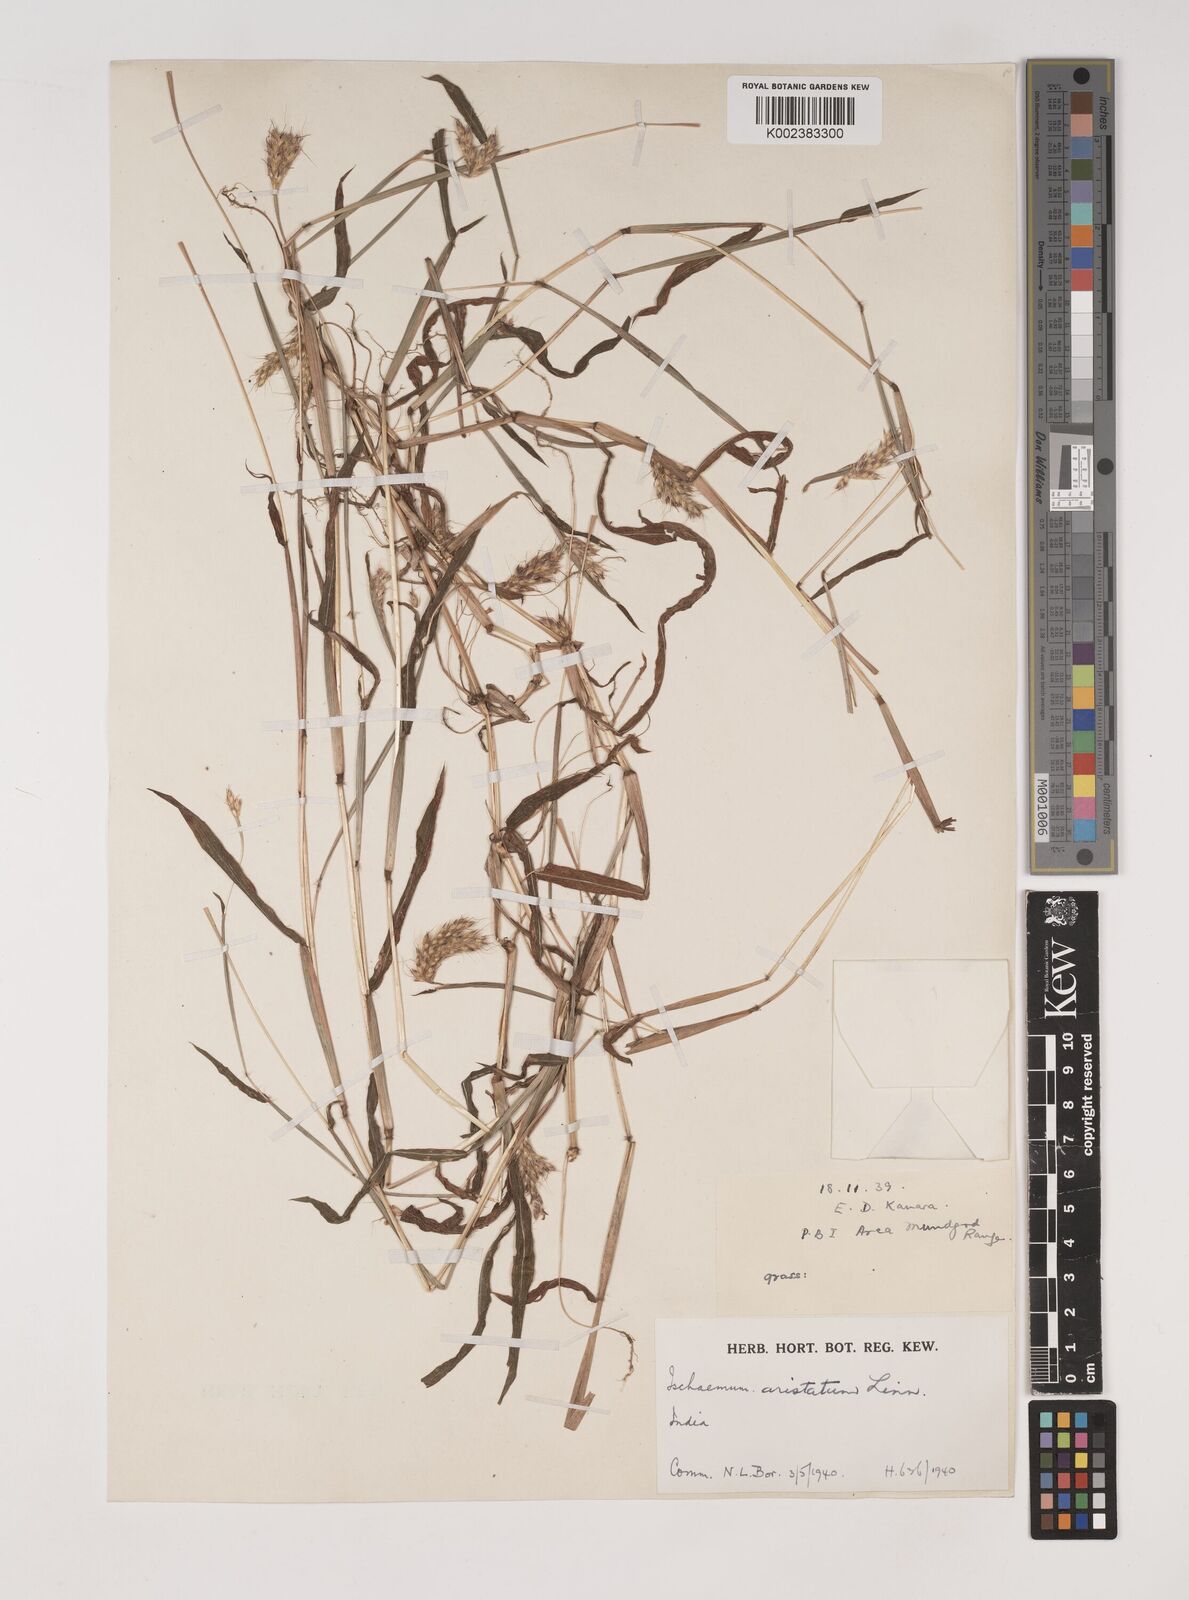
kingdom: Plantae
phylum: Tracheophyta
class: Liliopsida
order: Poales
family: Poaceae
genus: Polytrias
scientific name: Polytrias indica
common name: Indian murainagrass
